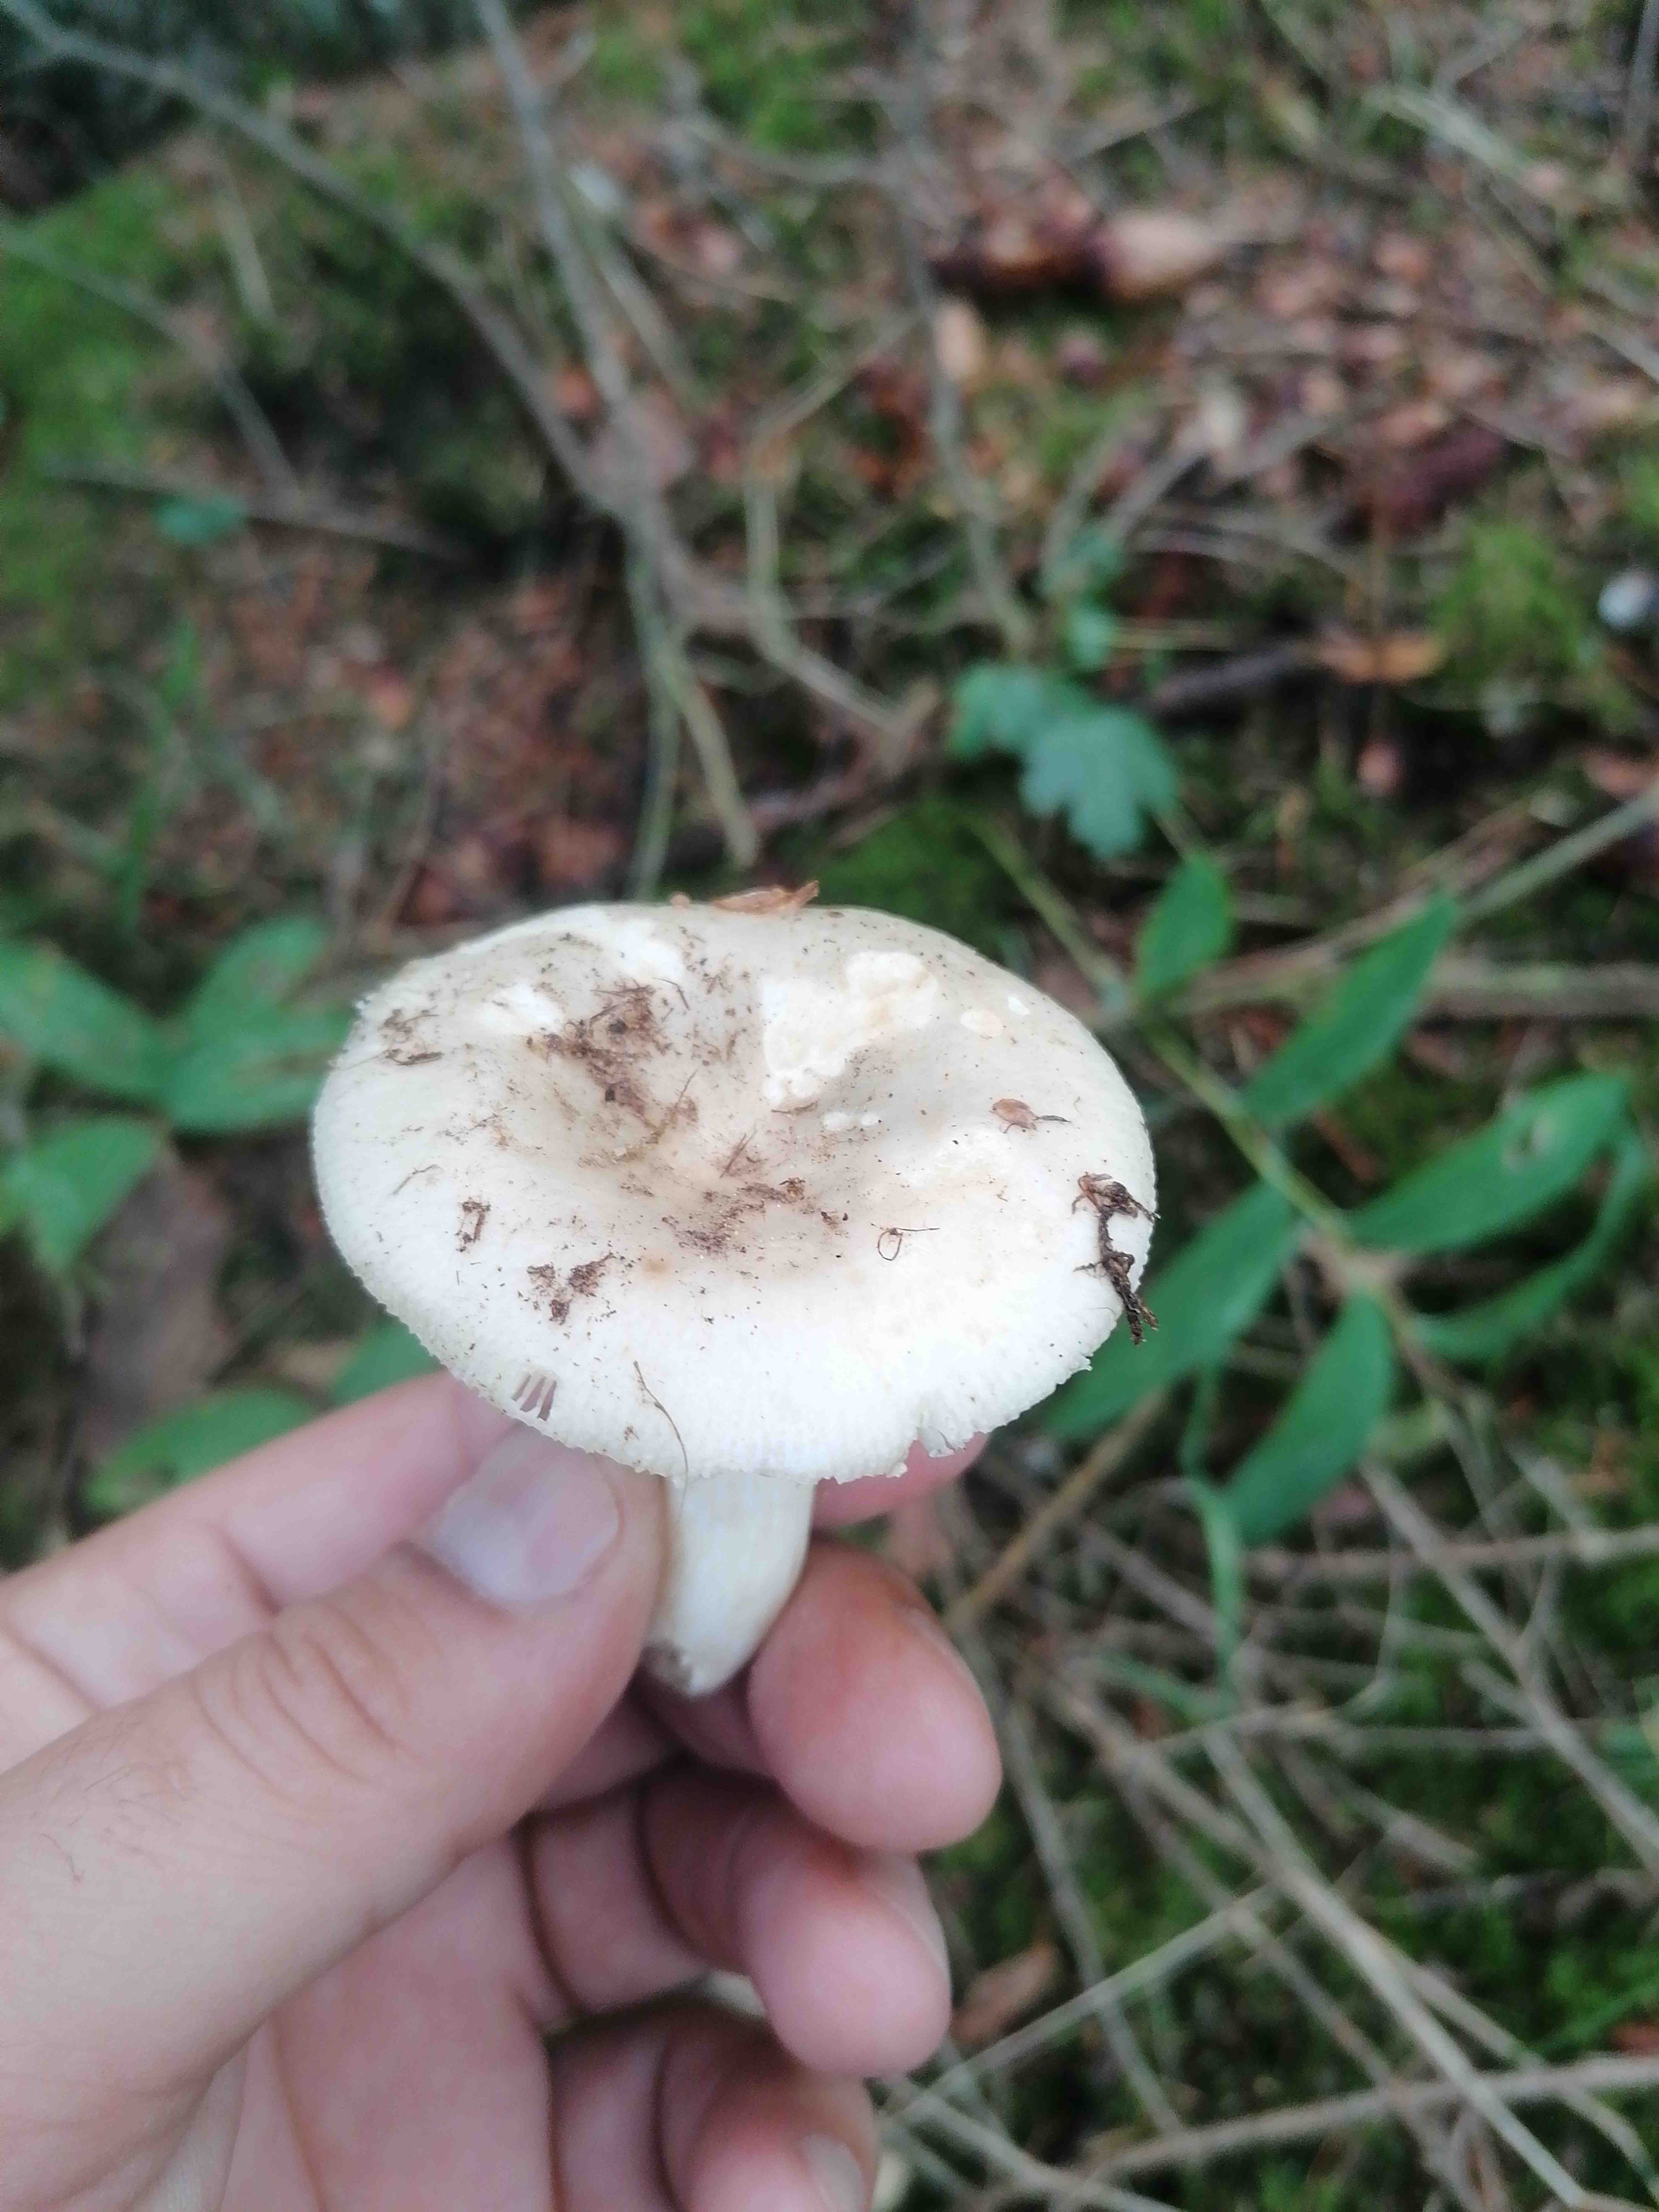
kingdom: Fungi
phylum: Basidiomycota
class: Agaricomycetes
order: Russulales
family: Russulaceae
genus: Russula
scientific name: Russula
